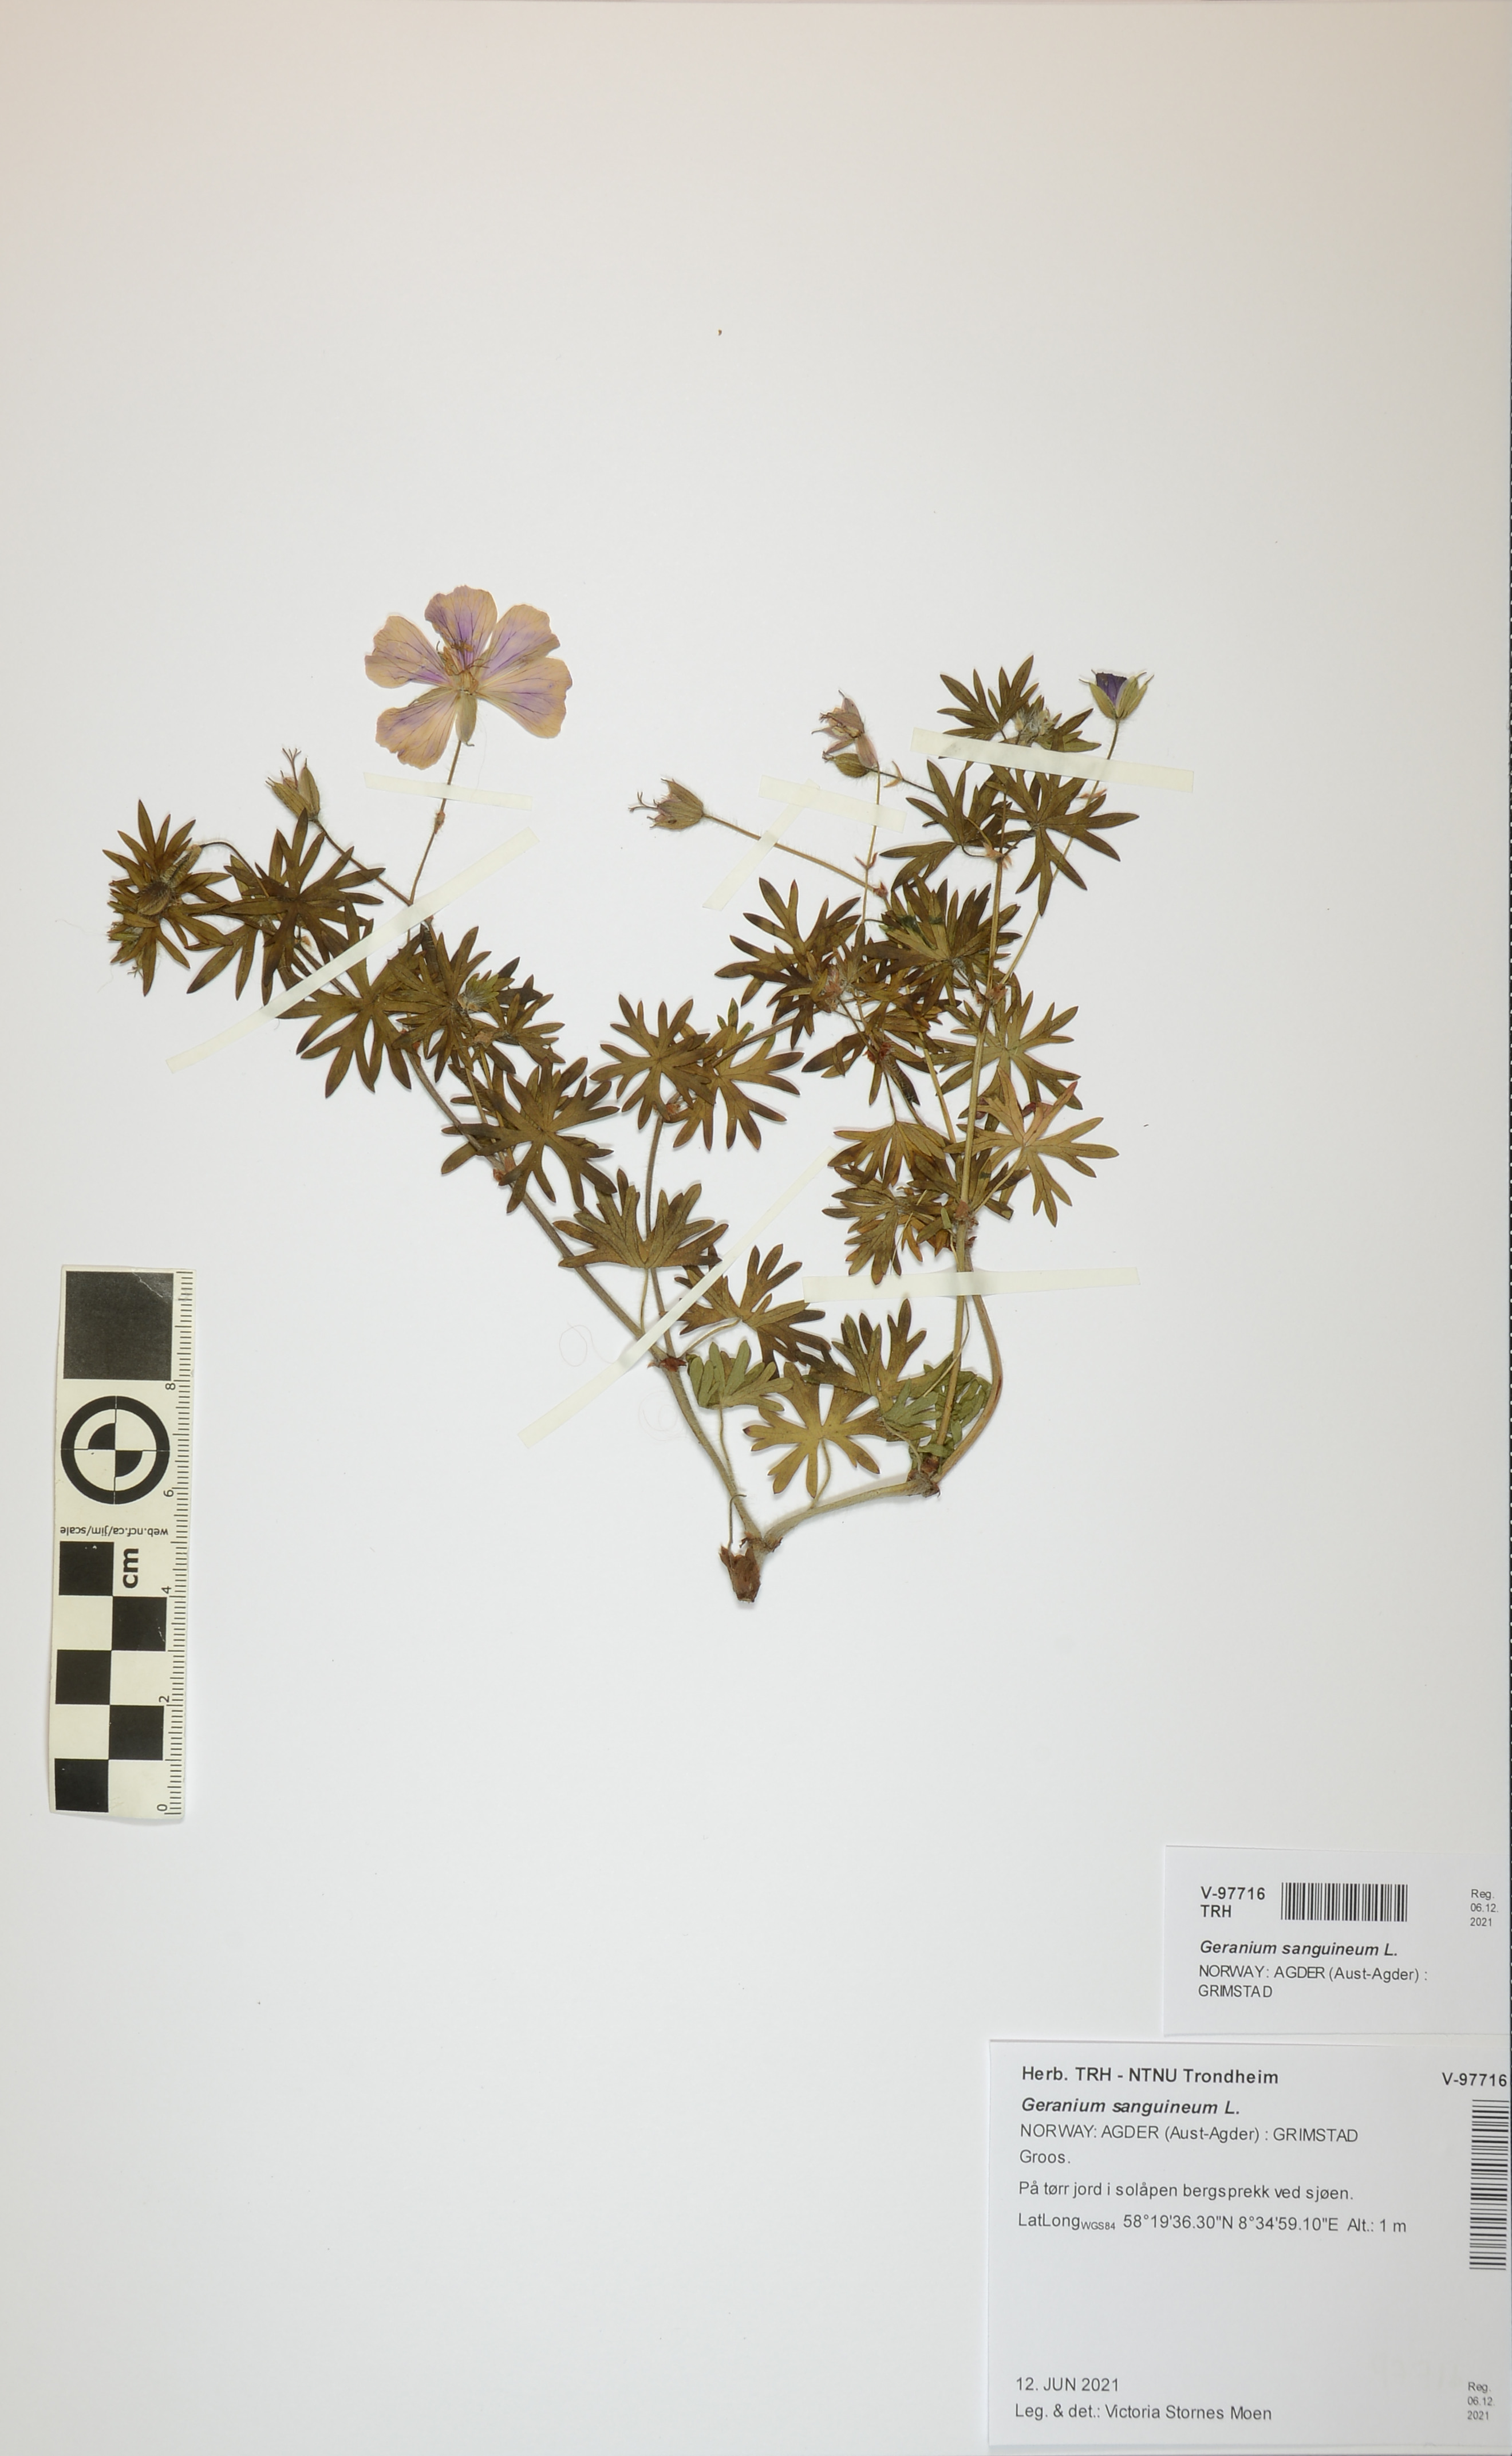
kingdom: Plantae
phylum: Tracheophyta
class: Magnoliopsida
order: Geraniales
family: Geraniaceae
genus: Geranium
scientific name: Geranium sanguineum
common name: Bloody crane's-bill
